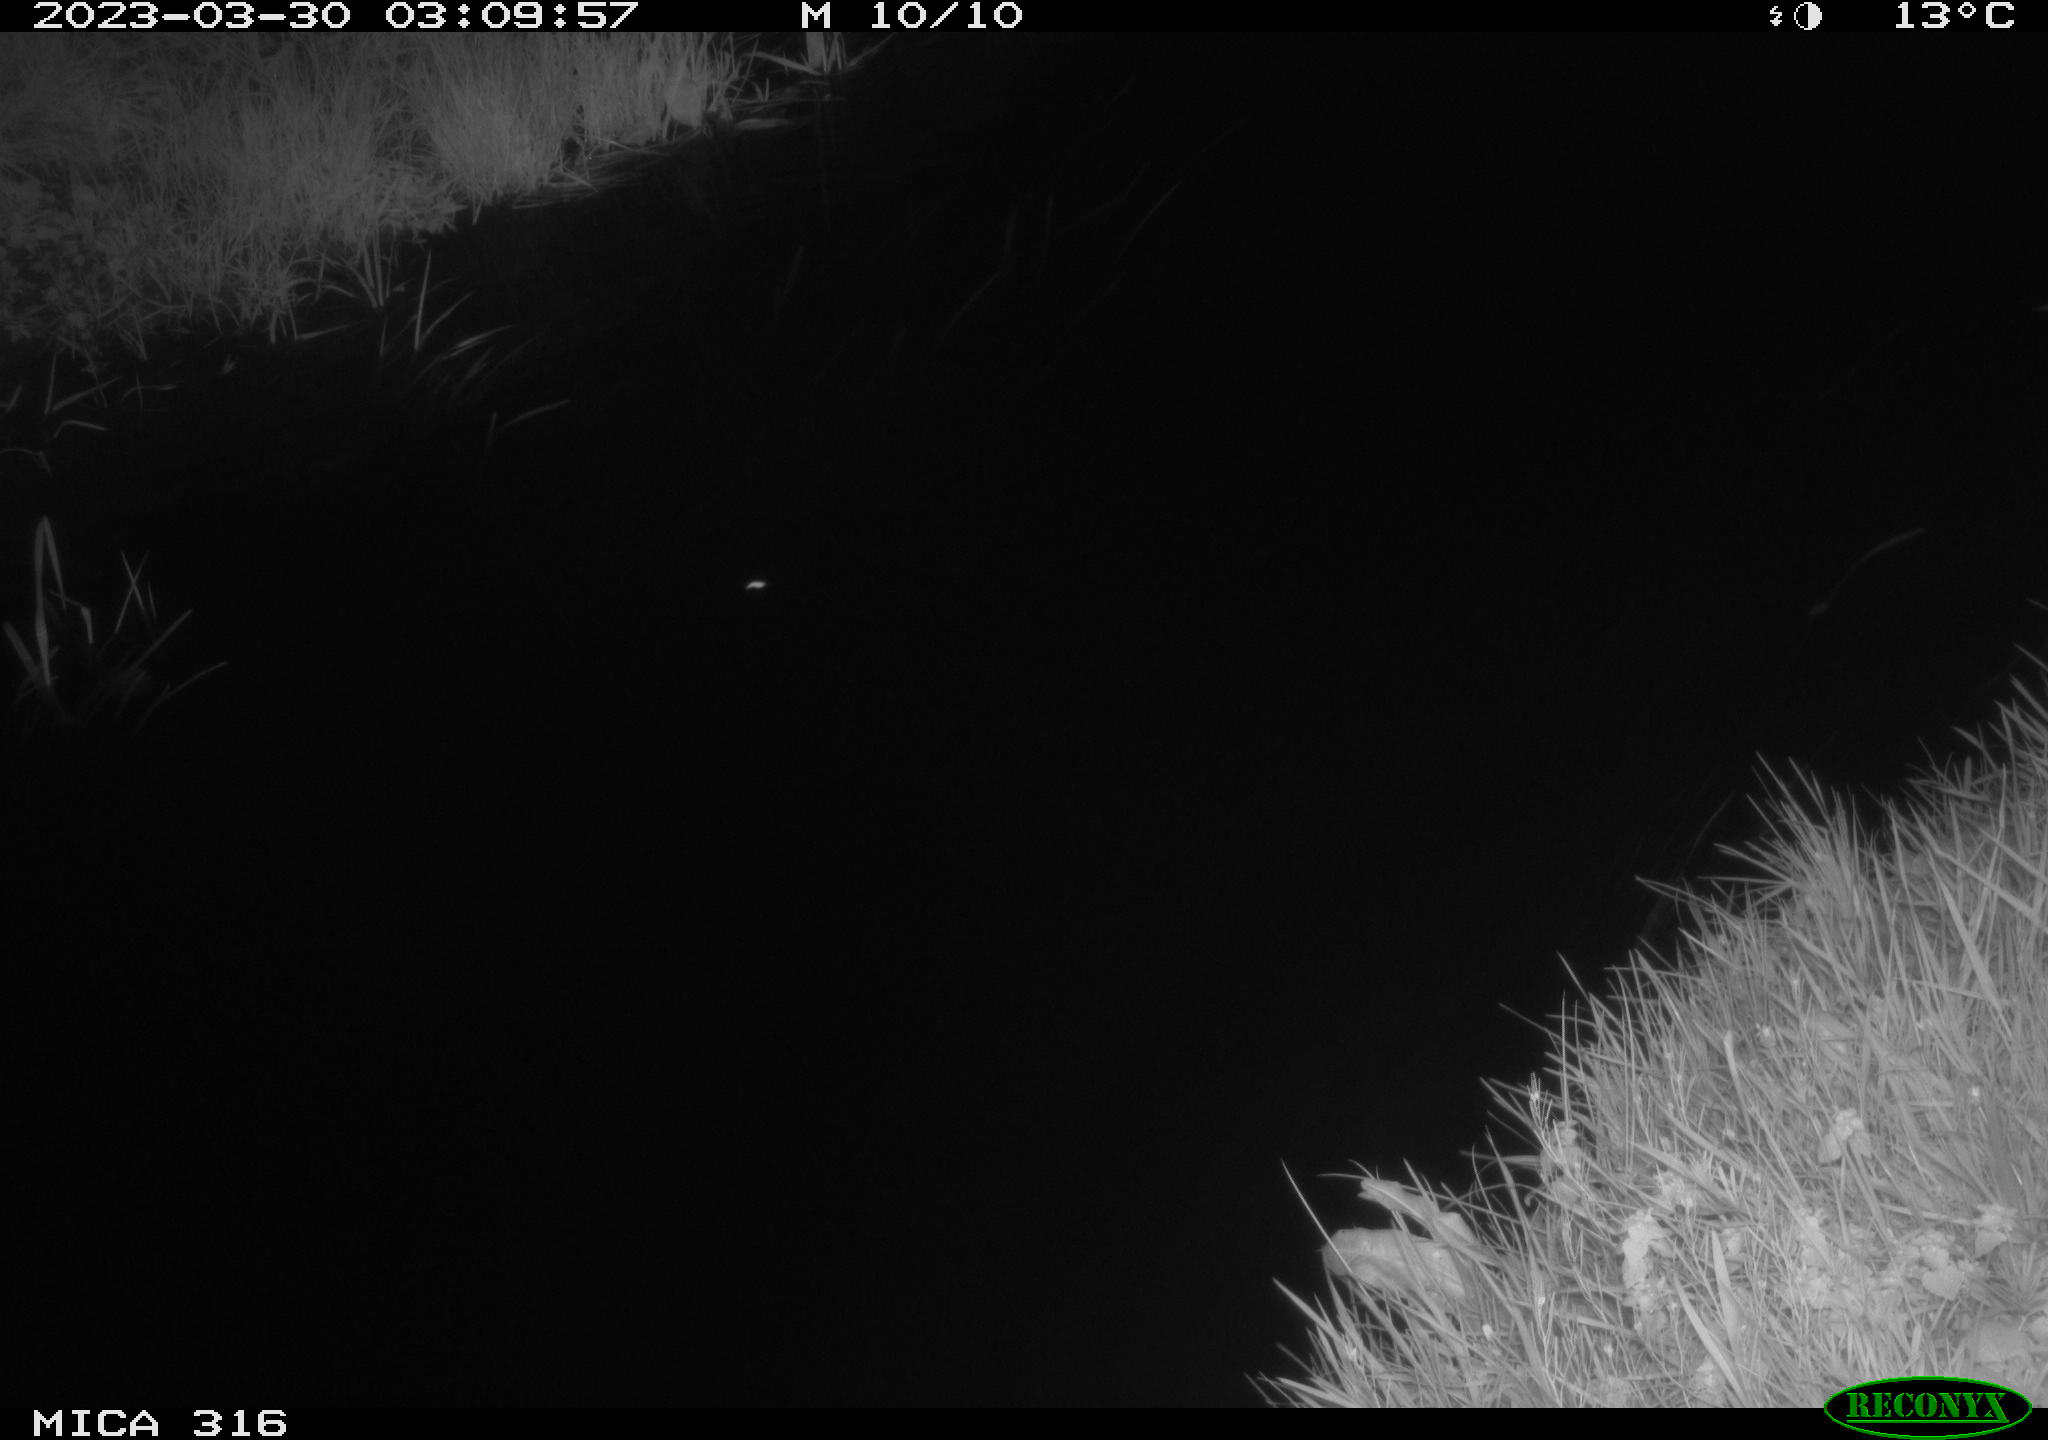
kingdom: Animalia
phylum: Chordata
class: Aves
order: Anseriformes
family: Anatidae
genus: Anas
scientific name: Anas
